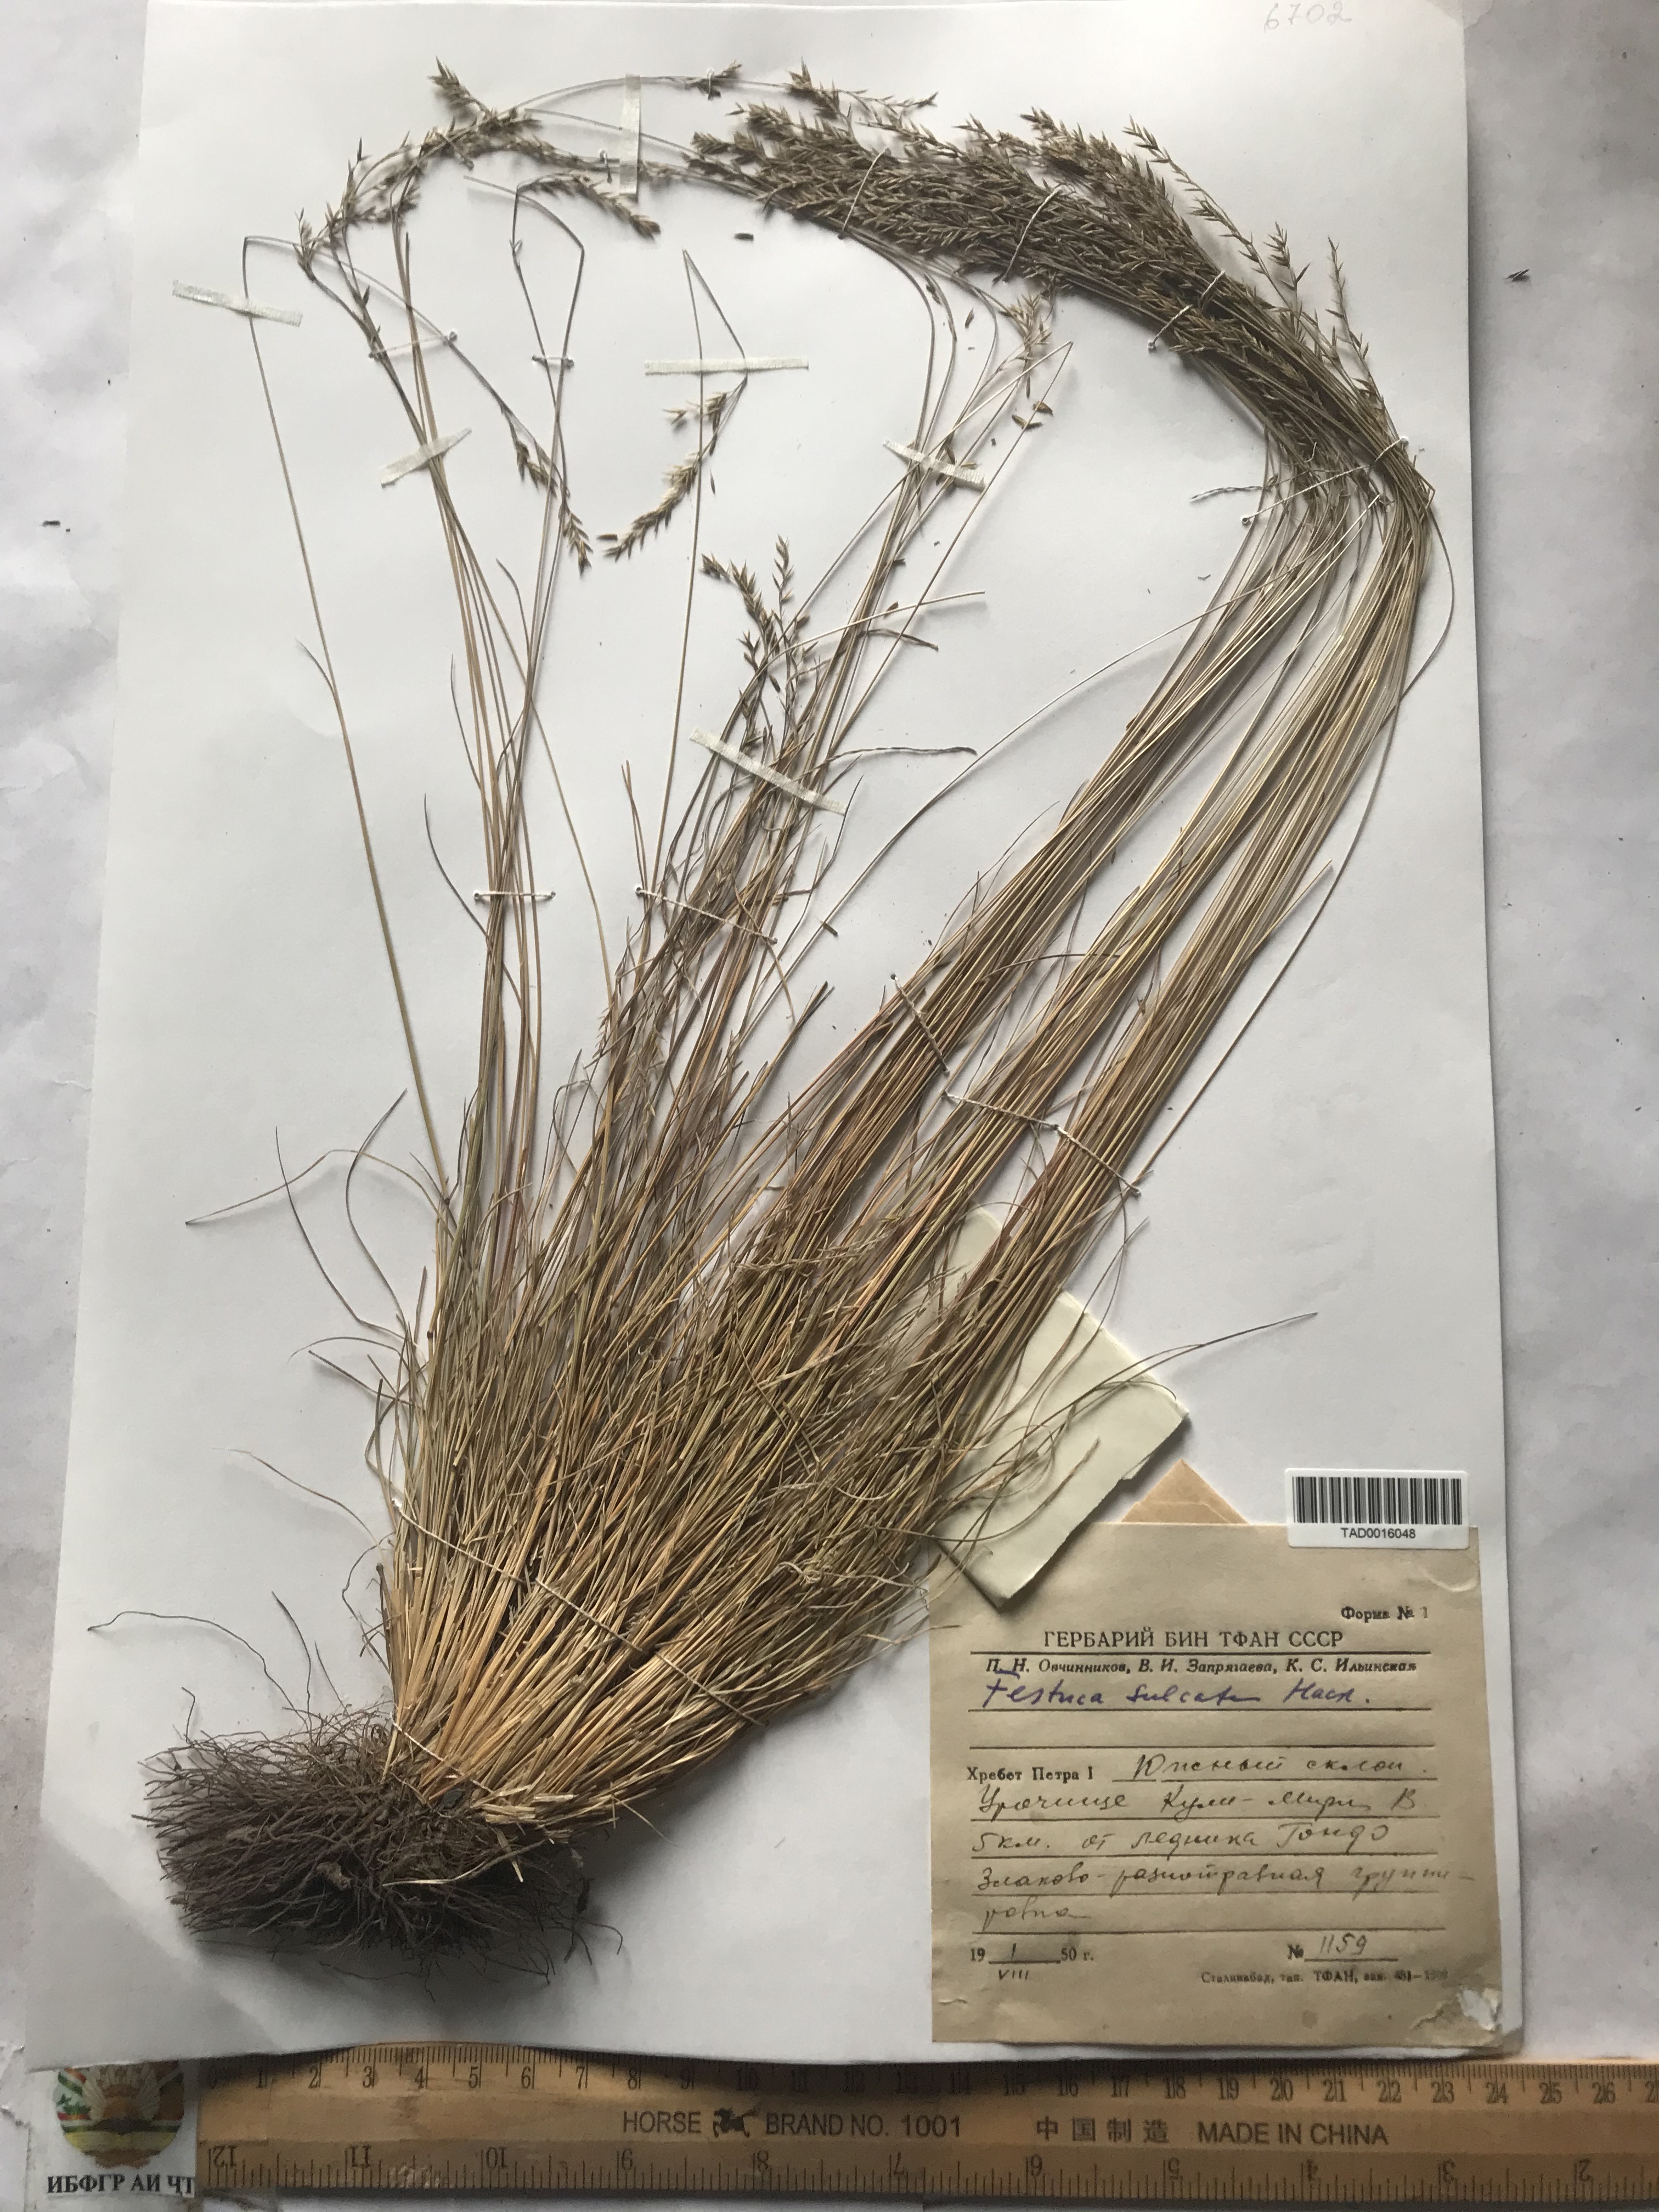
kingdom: Plantae
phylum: Tracheophyta
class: Liliopsida
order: Poales
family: Poaceae
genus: Festuca
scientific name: Festuca sulcata
